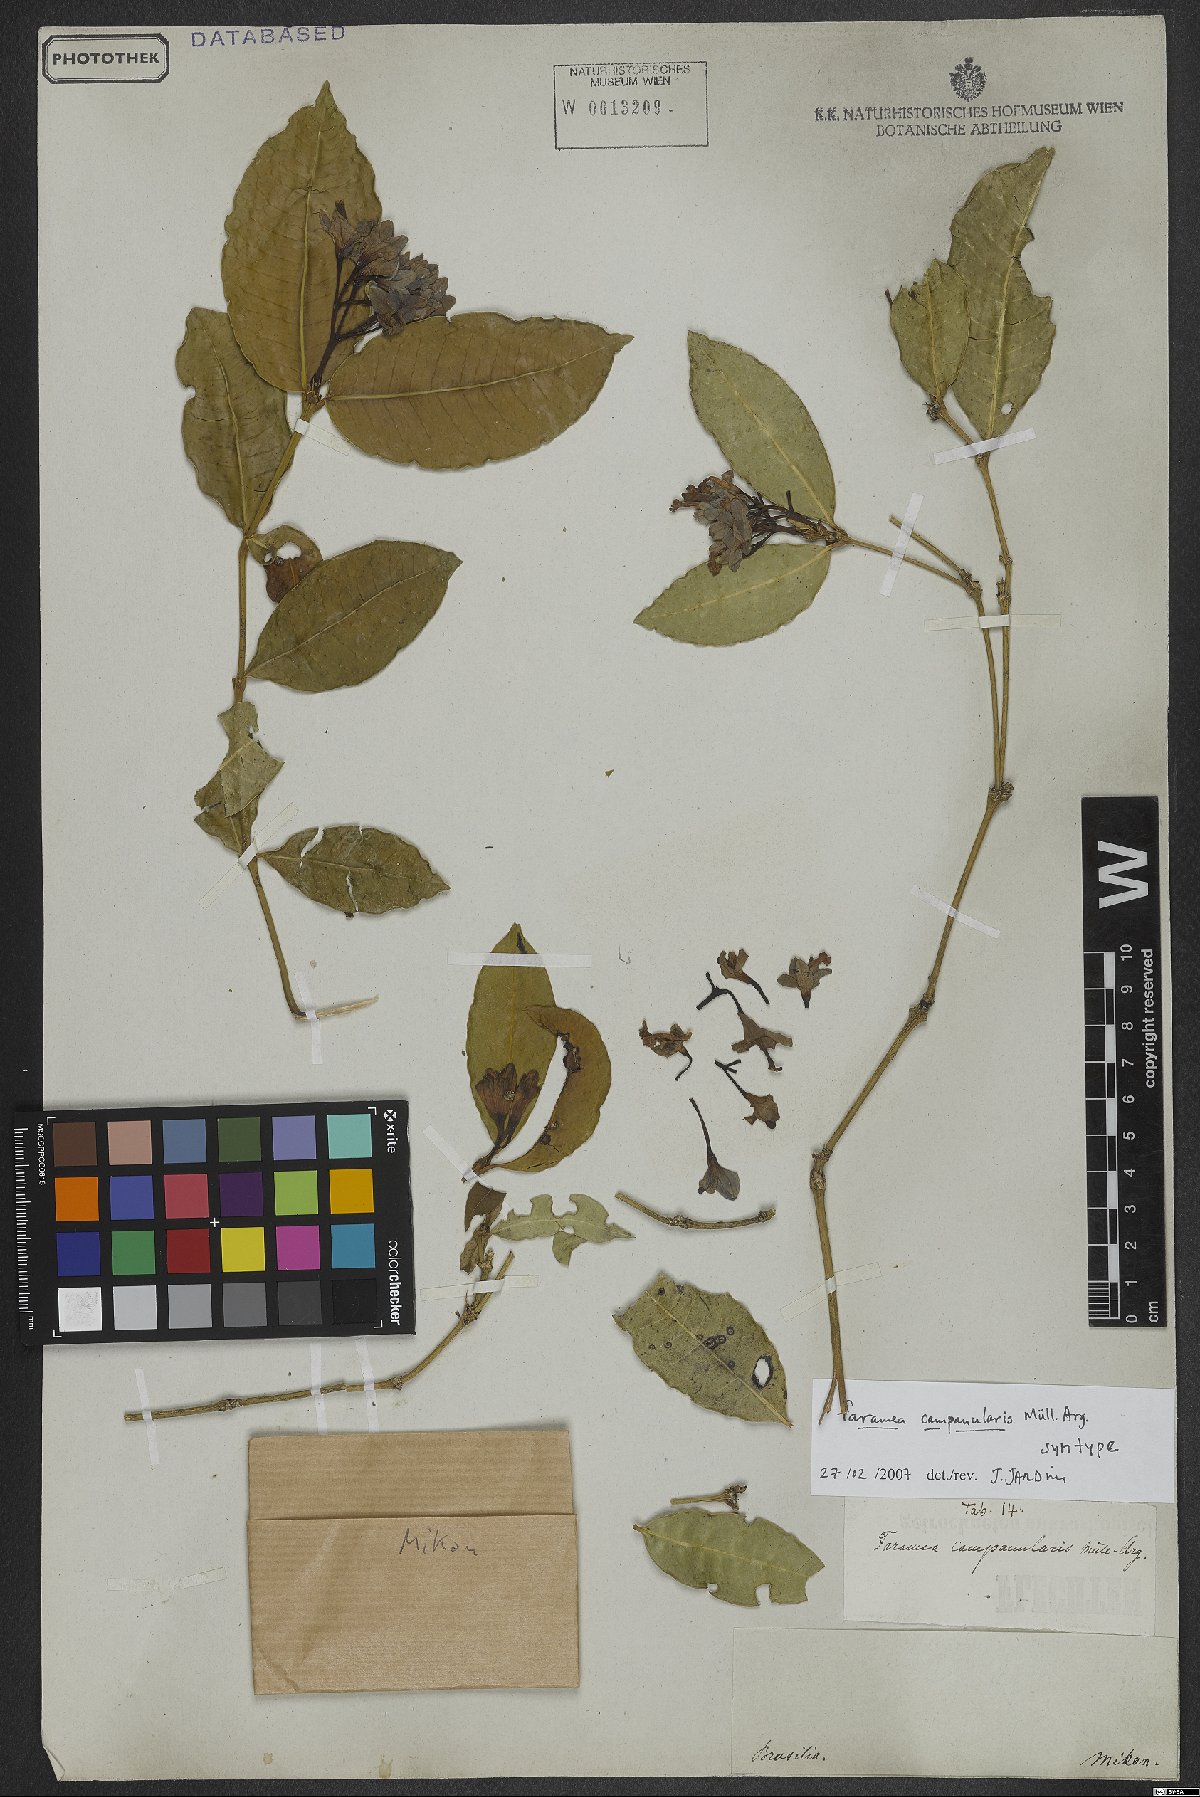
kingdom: Plantae
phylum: Tracheophyta
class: Magnoliopsida
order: Gentianales
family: Rubiaceae
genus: Faramea
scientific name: Faramea campanularis
